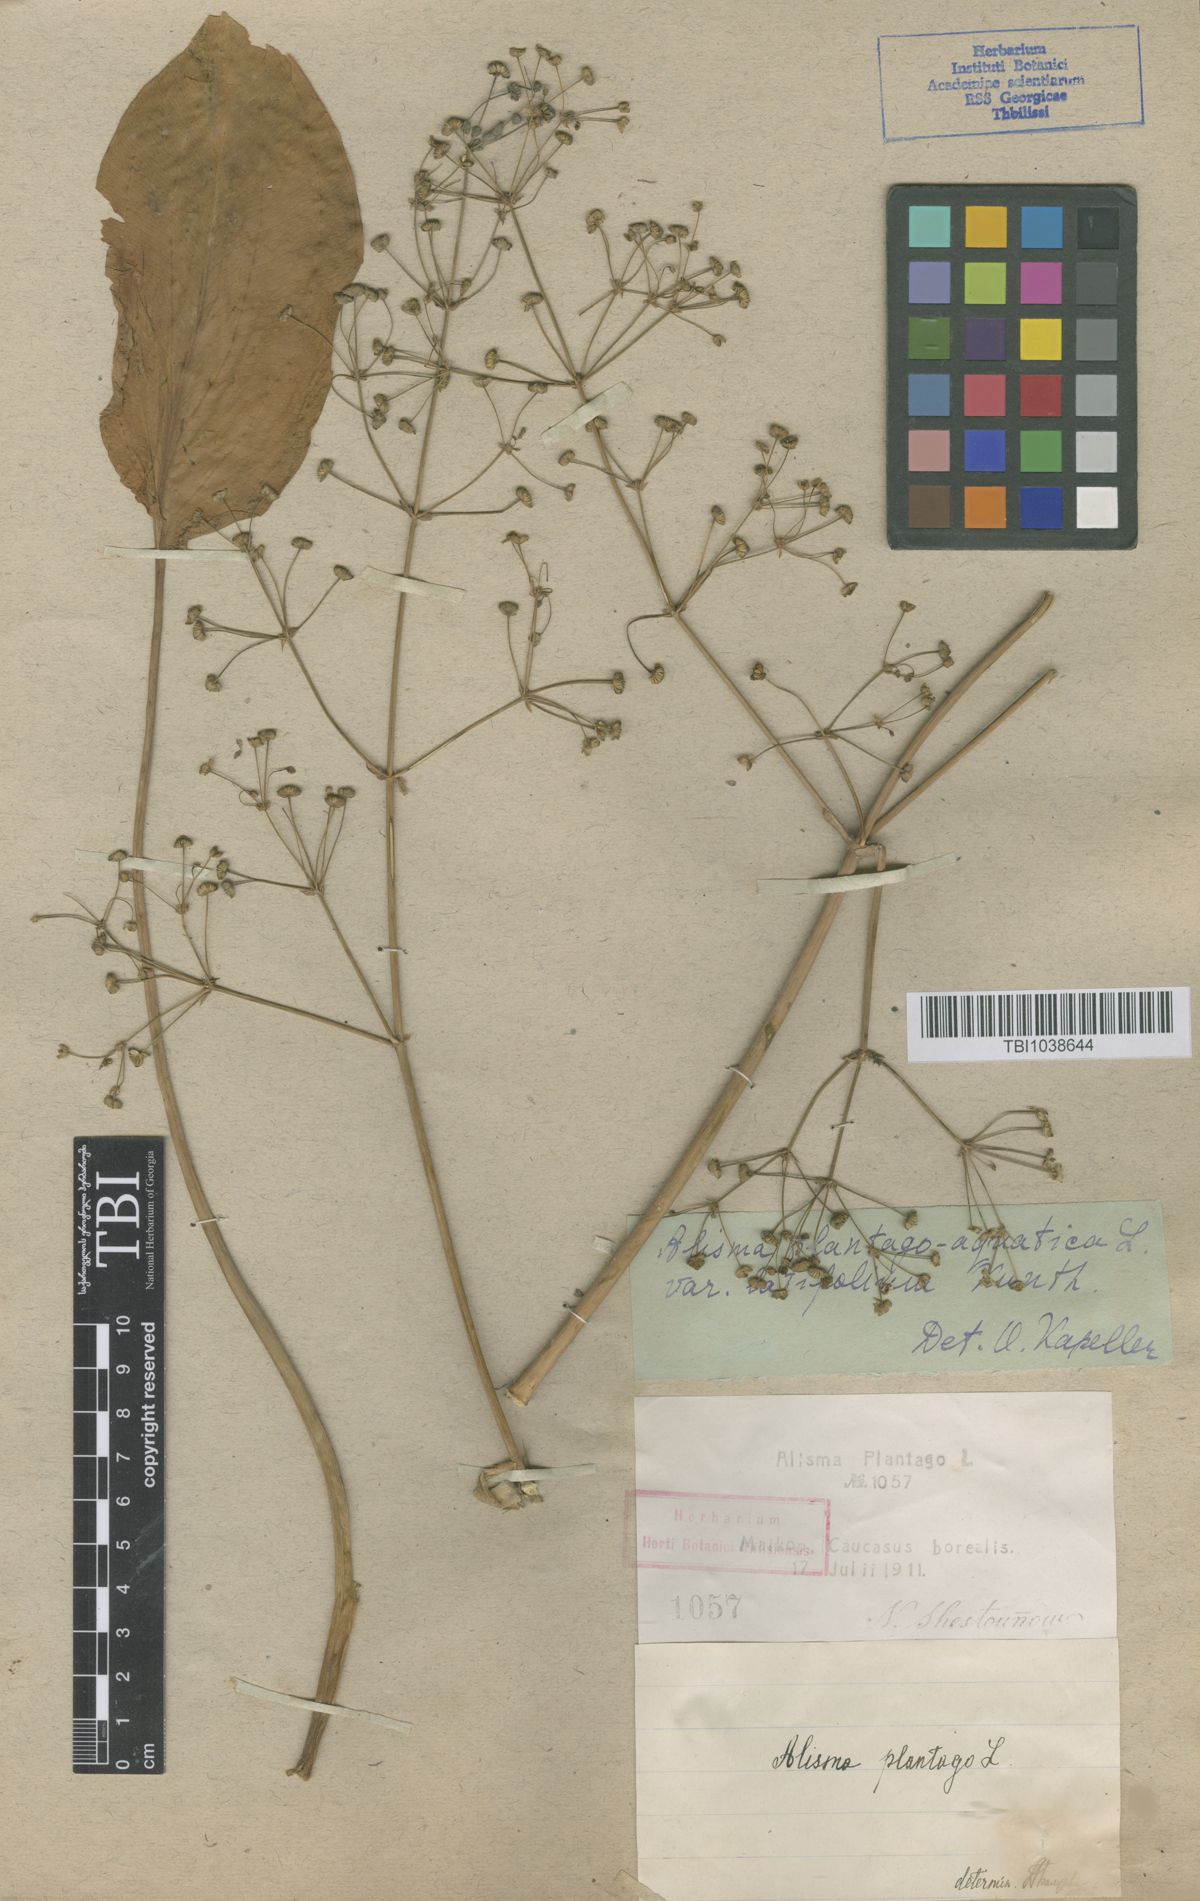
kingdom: Plantae
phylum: Tracheophyta
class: Liliopsida
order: Alismatales
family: Alismataceae
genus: Alisma
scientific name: Alisma plantago-aquatica
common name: Water-plantain
